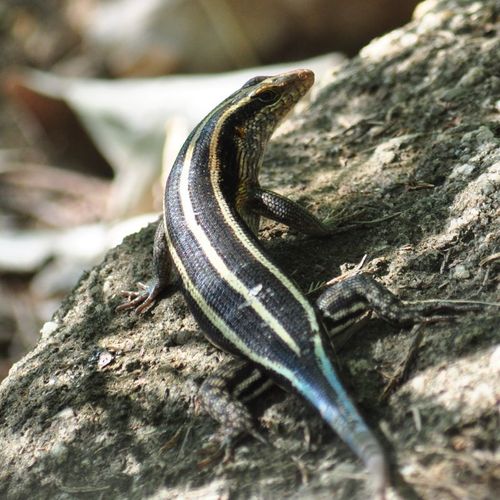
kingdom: Animalia
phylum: Chordata
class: Squamata
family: Scincidae
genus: Trachylepis
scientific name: Trachylepis margaritifera
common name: Rainbow skink
